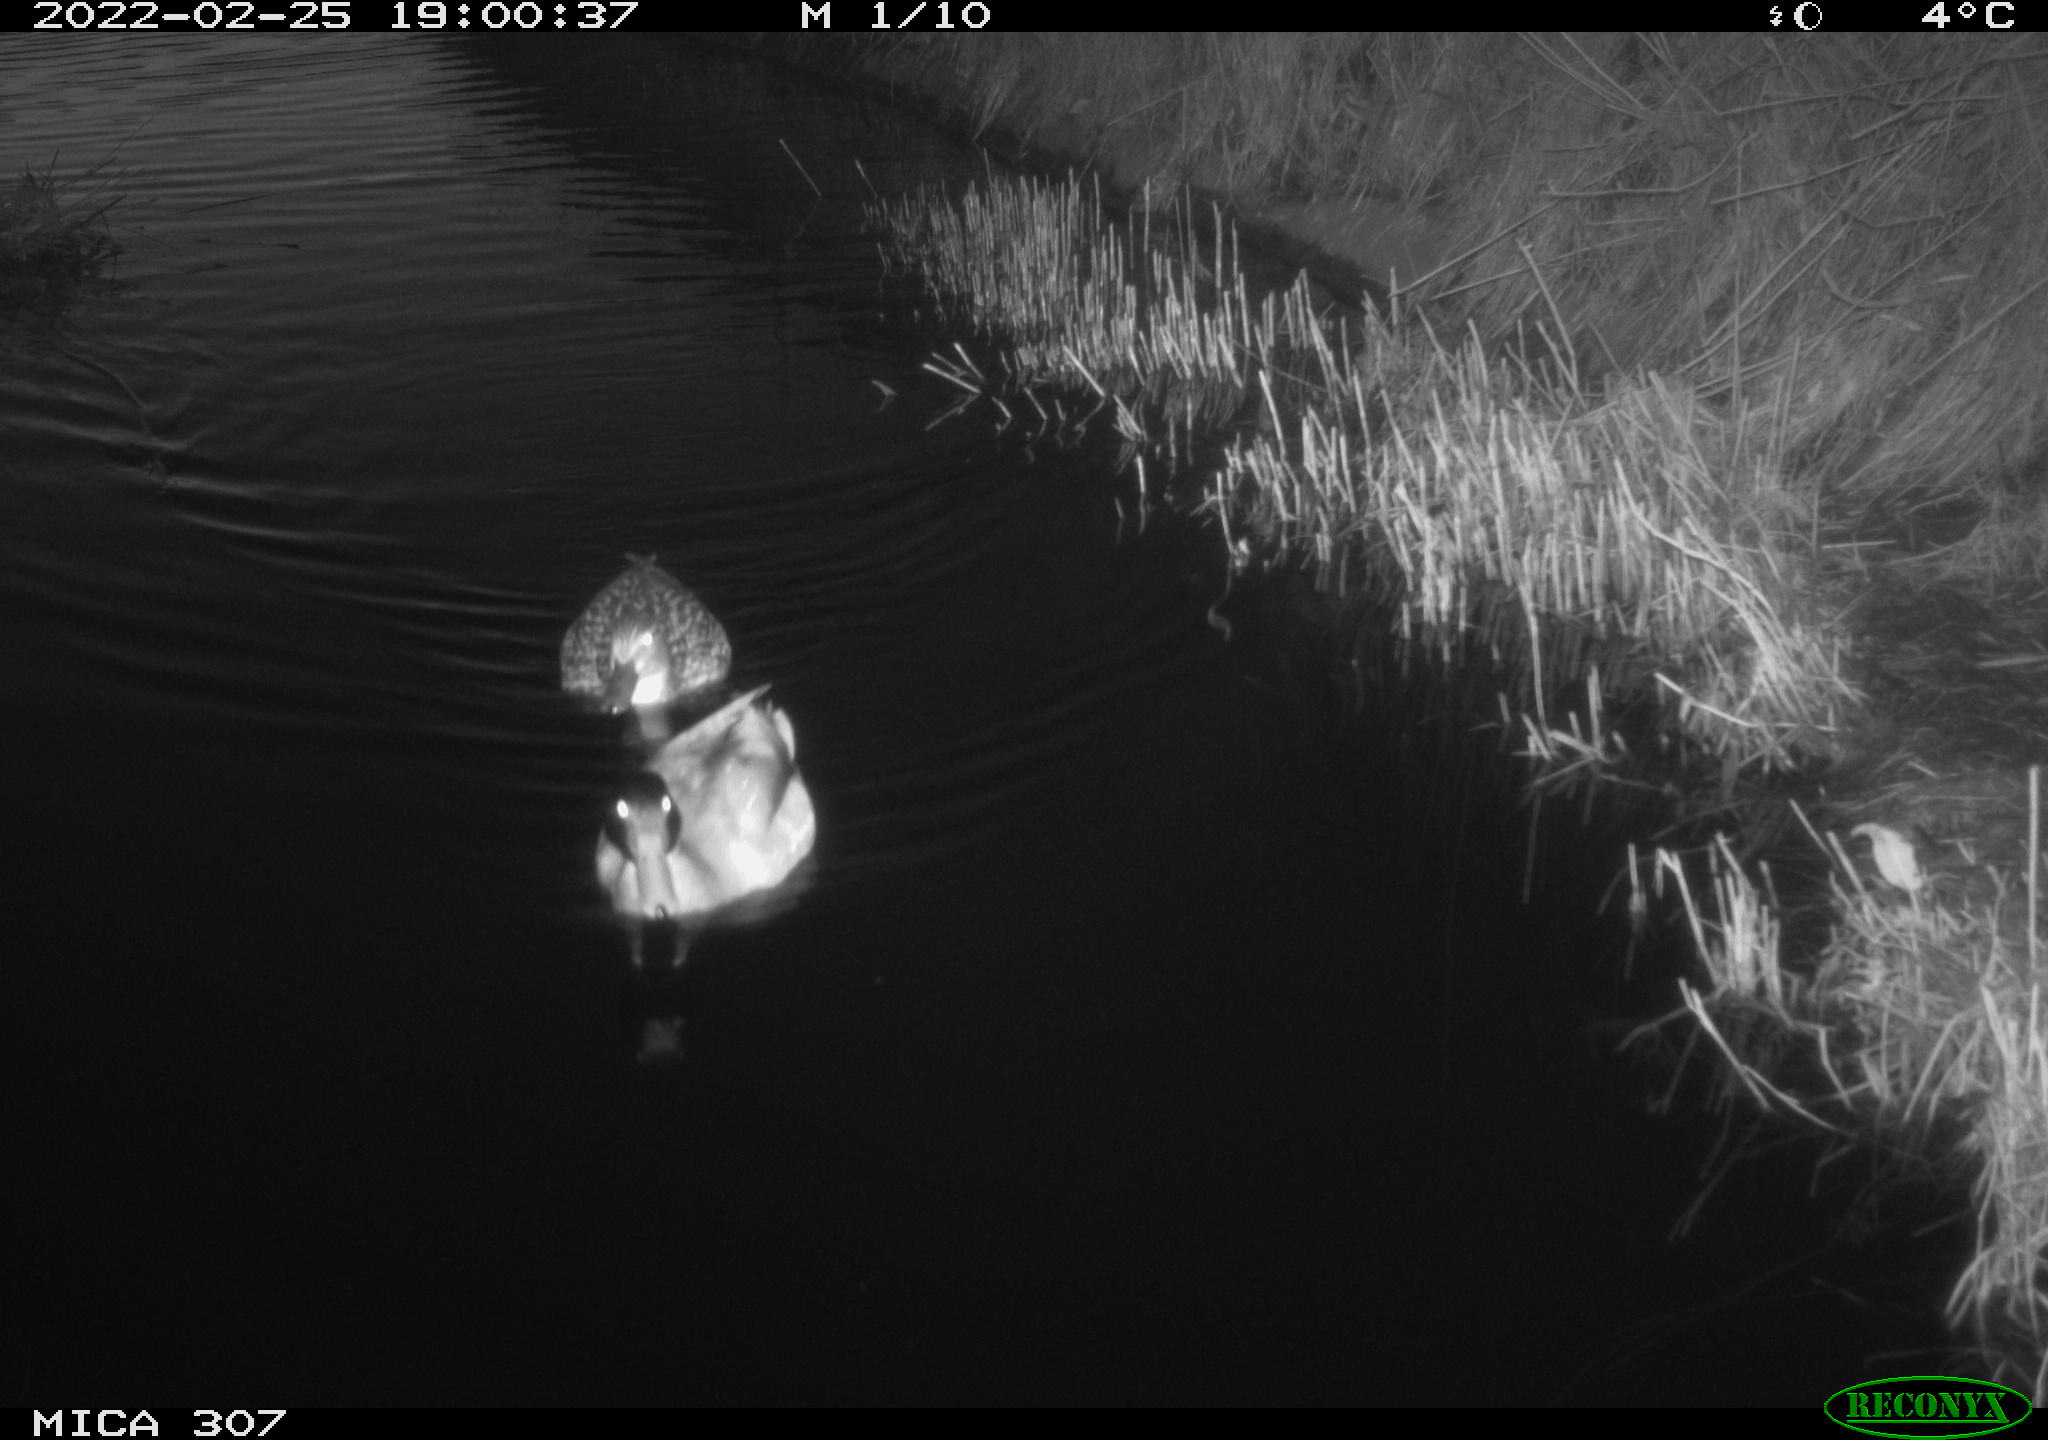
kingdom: Animalia
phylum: Chordata
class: Aves
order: Anseriformes
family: Anatidae
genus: Anas
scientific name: Anas platyrhynchos
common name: Mallard
